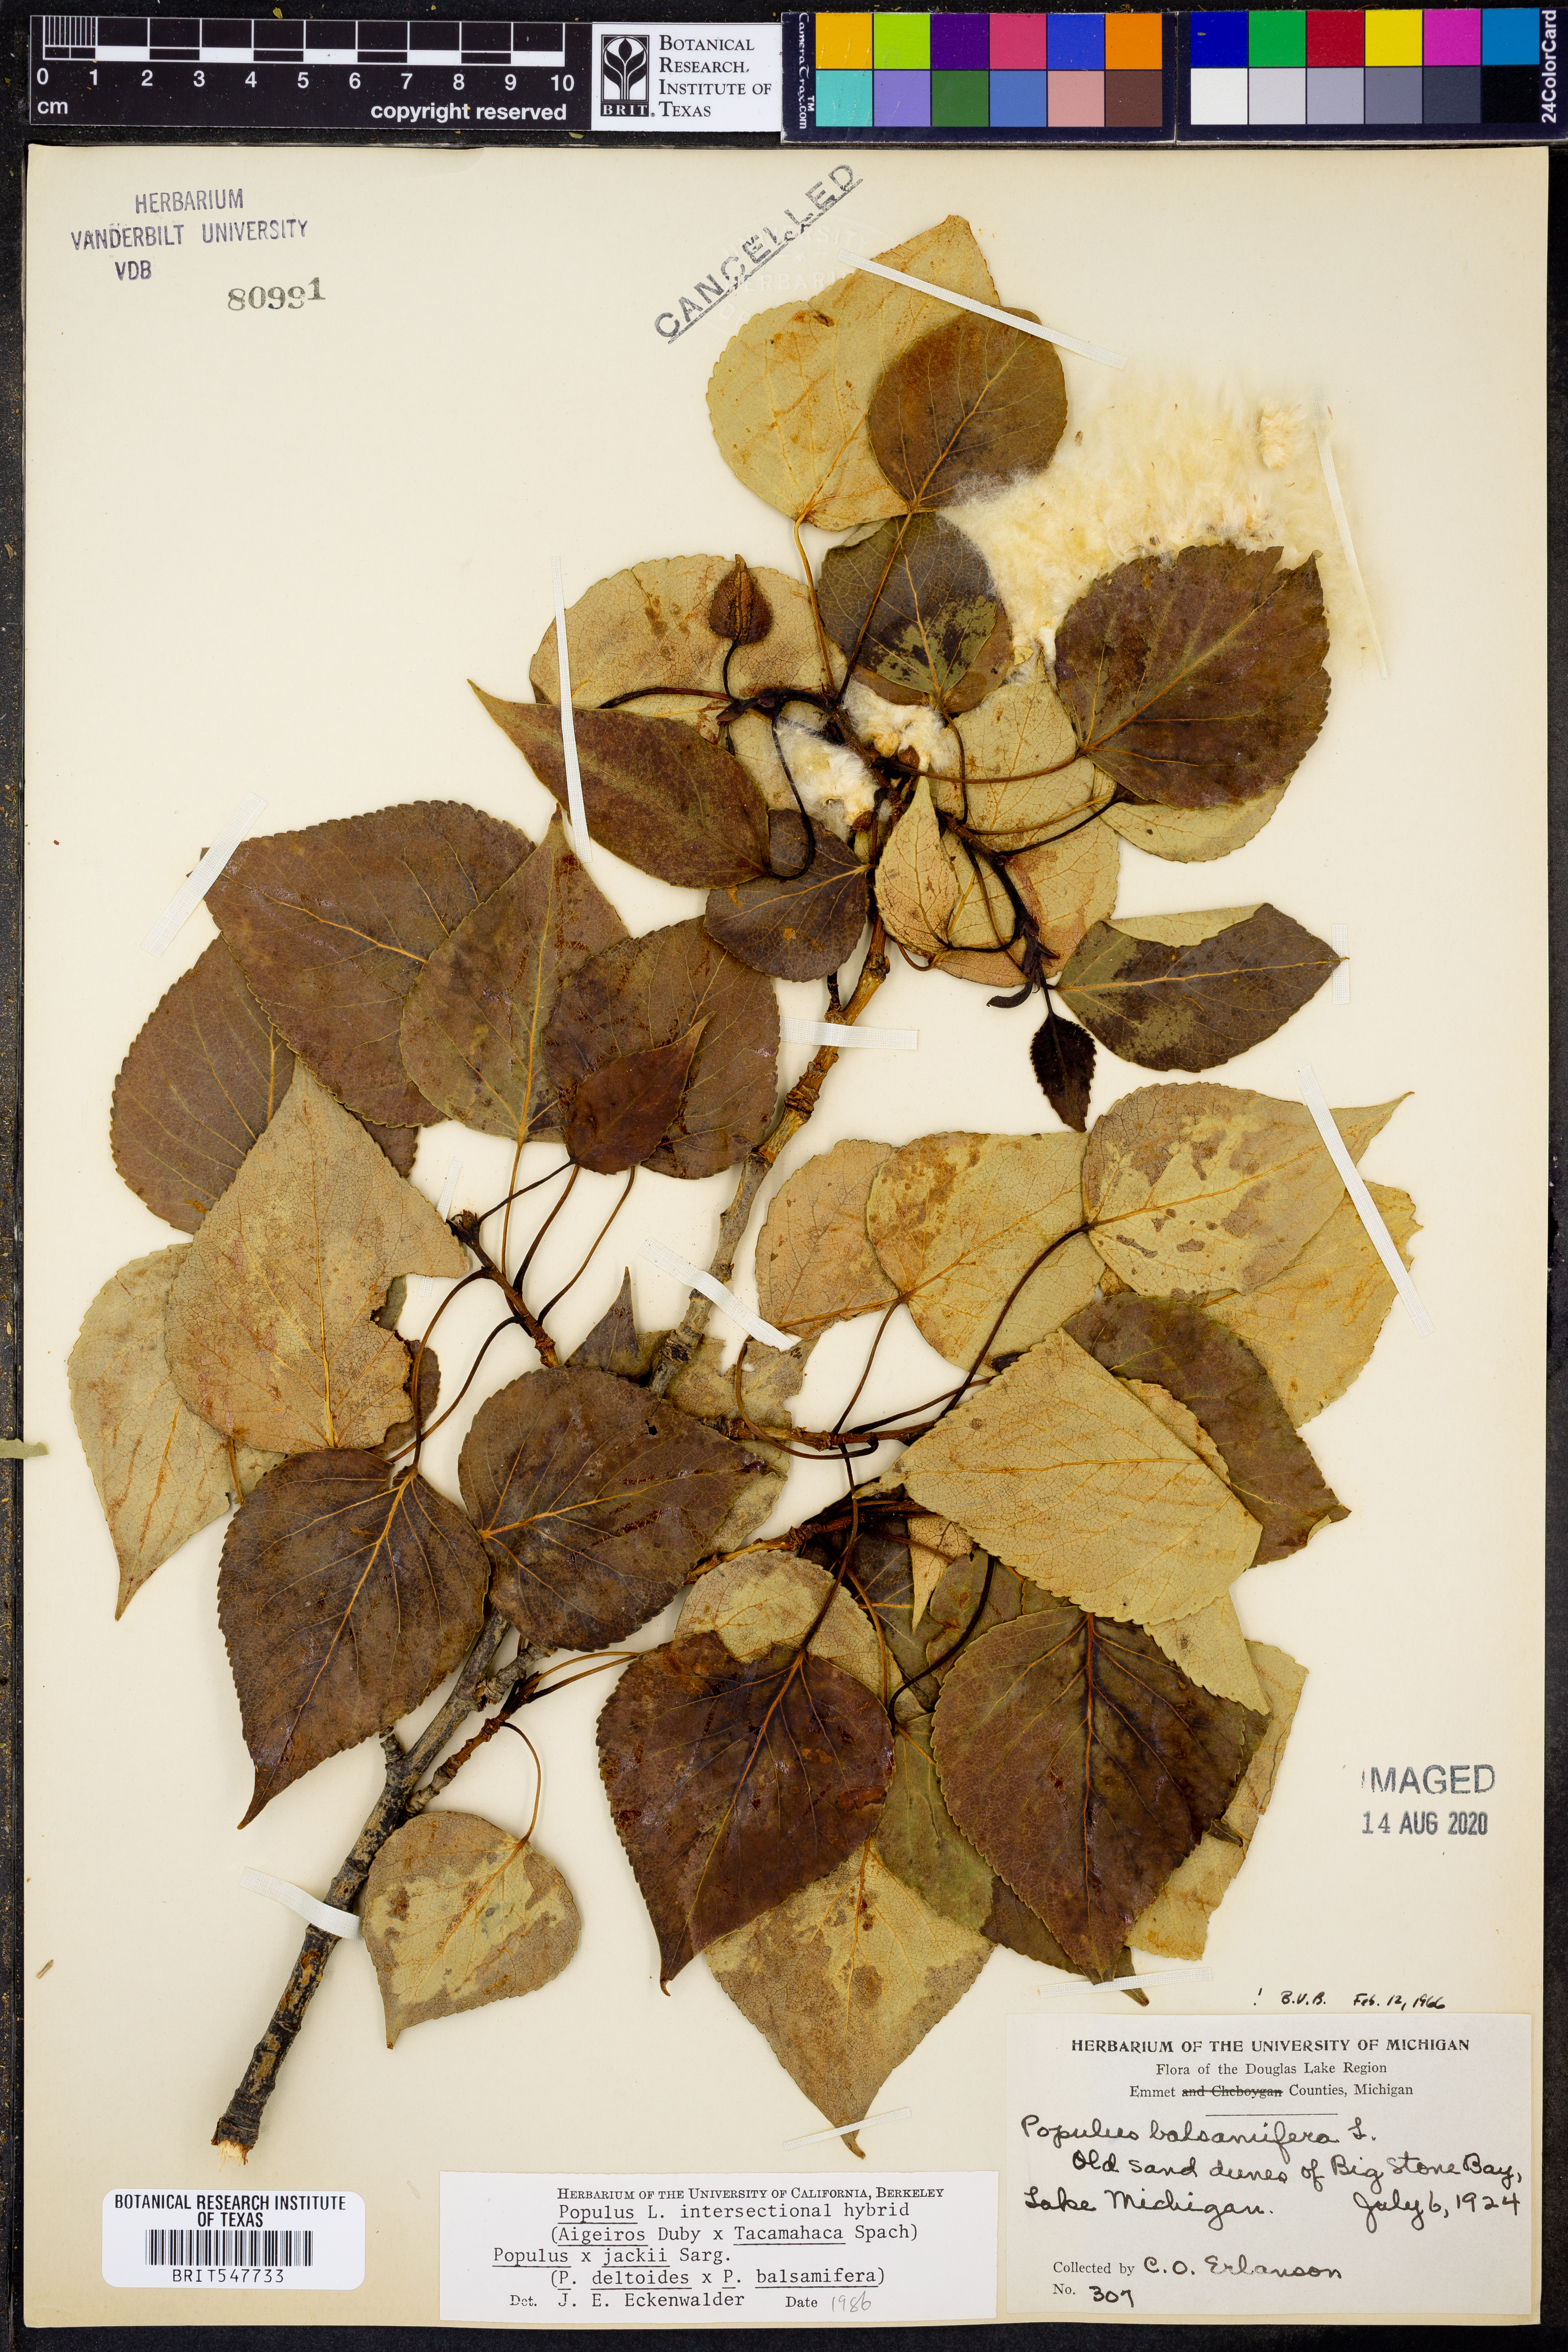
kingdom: Plantae
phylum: Tracheophyta
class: Magnoliopsida
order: Malpighiales
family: Salicaceae
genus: Populus
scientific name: Populus
